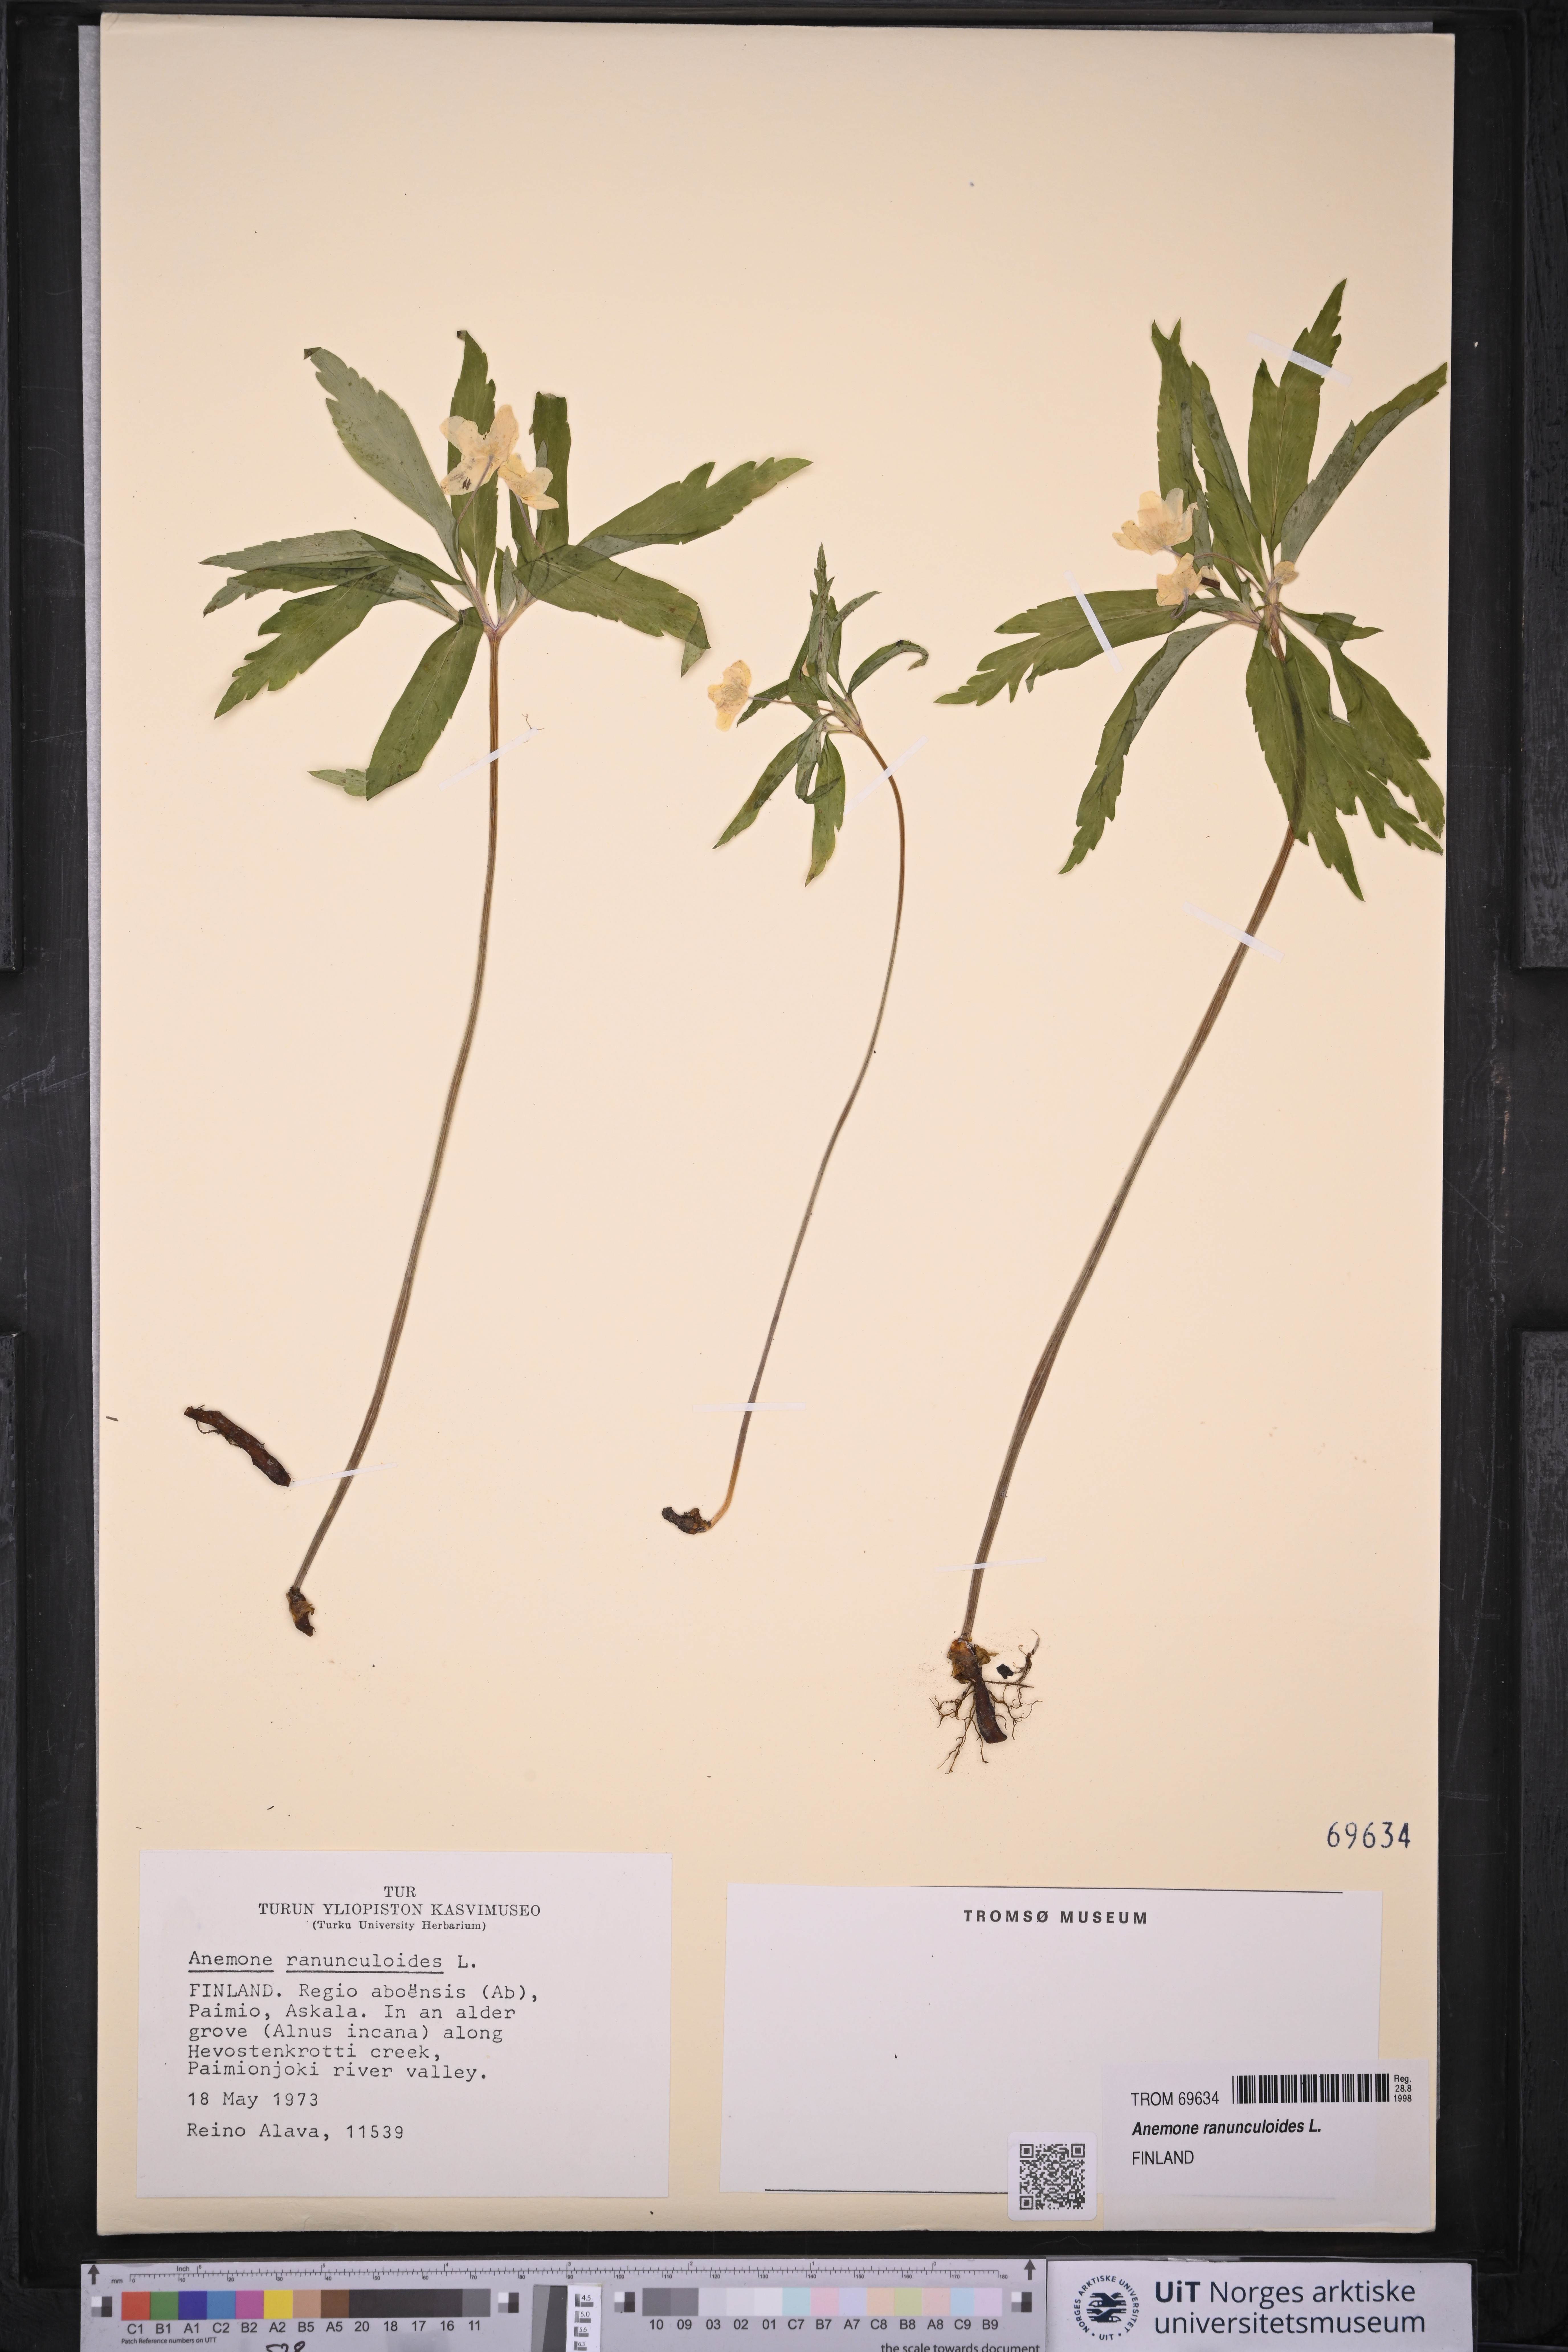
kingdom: Plantae
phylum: Tracheophyta
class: Magnoliopsida
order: Ranunculales
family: Ranunculaceae
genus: Anemone
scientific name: Anemone ranunculoides
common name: Yellow anemone
